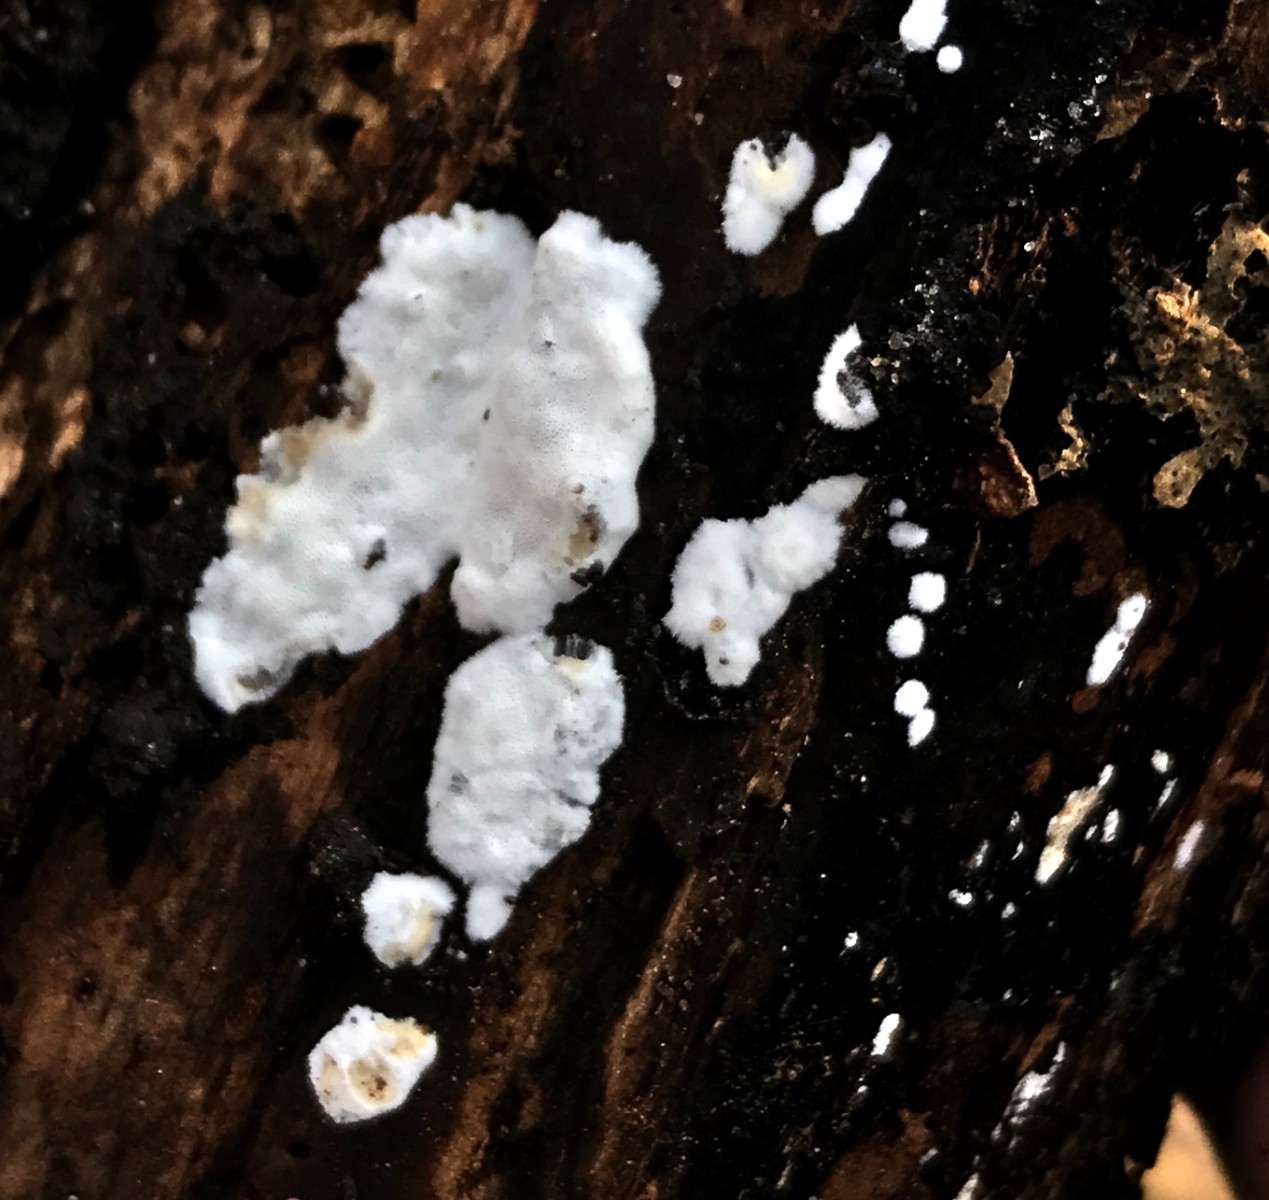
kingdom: Fungi
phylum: Basidiomycota
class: Agaricomycetes
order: Polyporales
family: Incrustoporiaceae
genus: Skeletocutis
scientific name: Skeletocutis nemoralis
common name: stor krystalporesvamp
